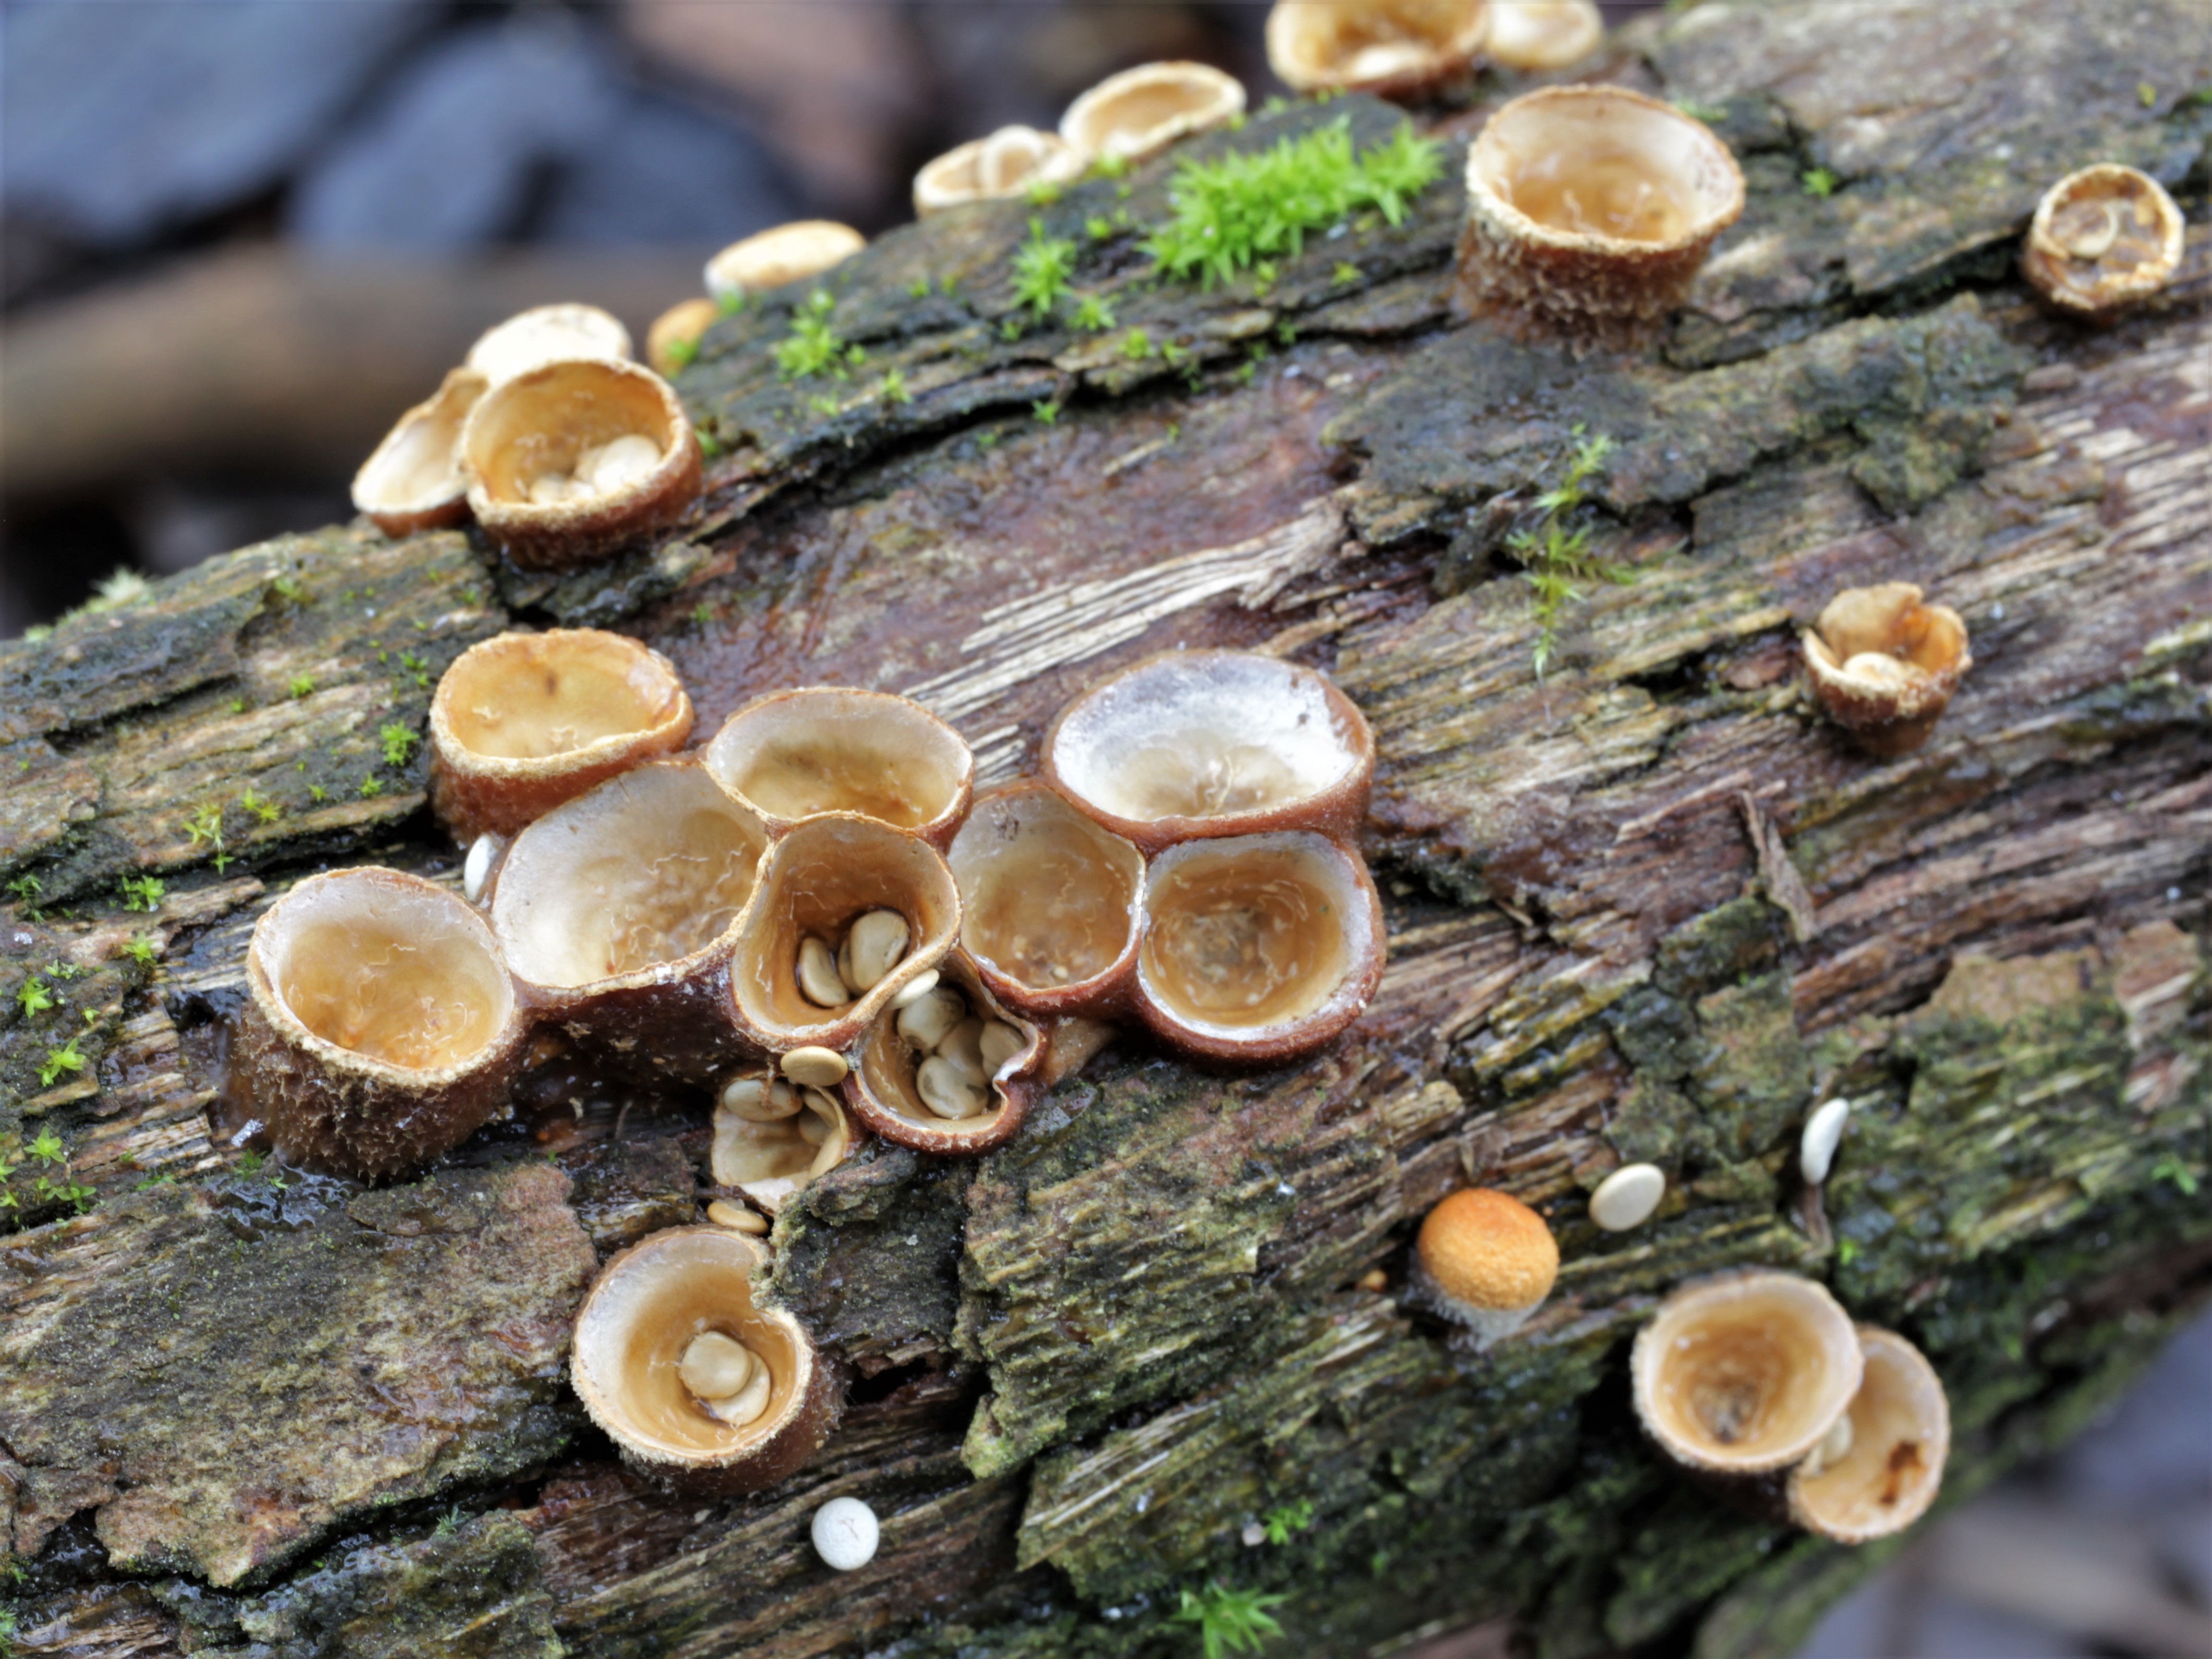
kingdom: Fungi
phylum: Basidiomycota
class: Agaricomycetes
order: Agaricales
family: Nidulariaceae
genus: Crucibulum
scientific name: Crucibulum laeve
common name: Common bird's nest
